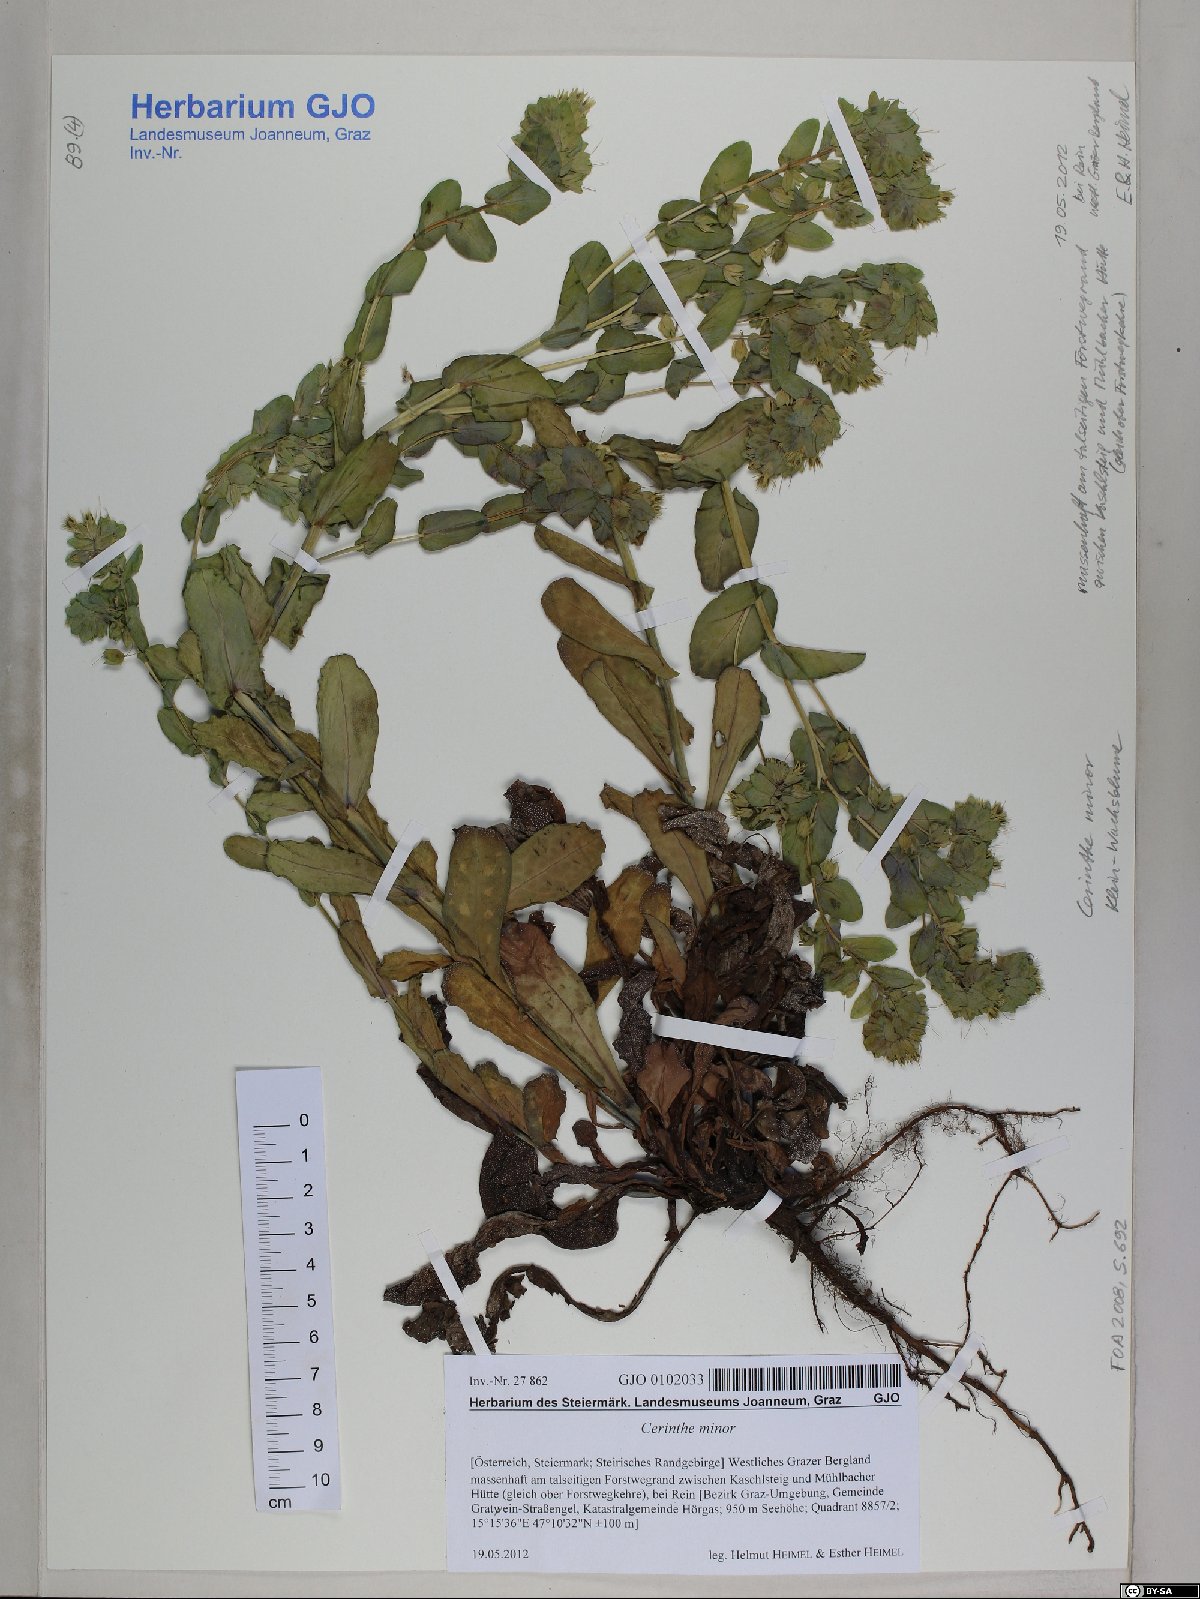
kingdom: Plantae
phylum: Tracheophyta
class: Magnoliopsida
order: Boraginales
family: Boraginaceae
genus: Cerinthe
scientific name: Cerinthe minor
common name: Lesser honeywort
